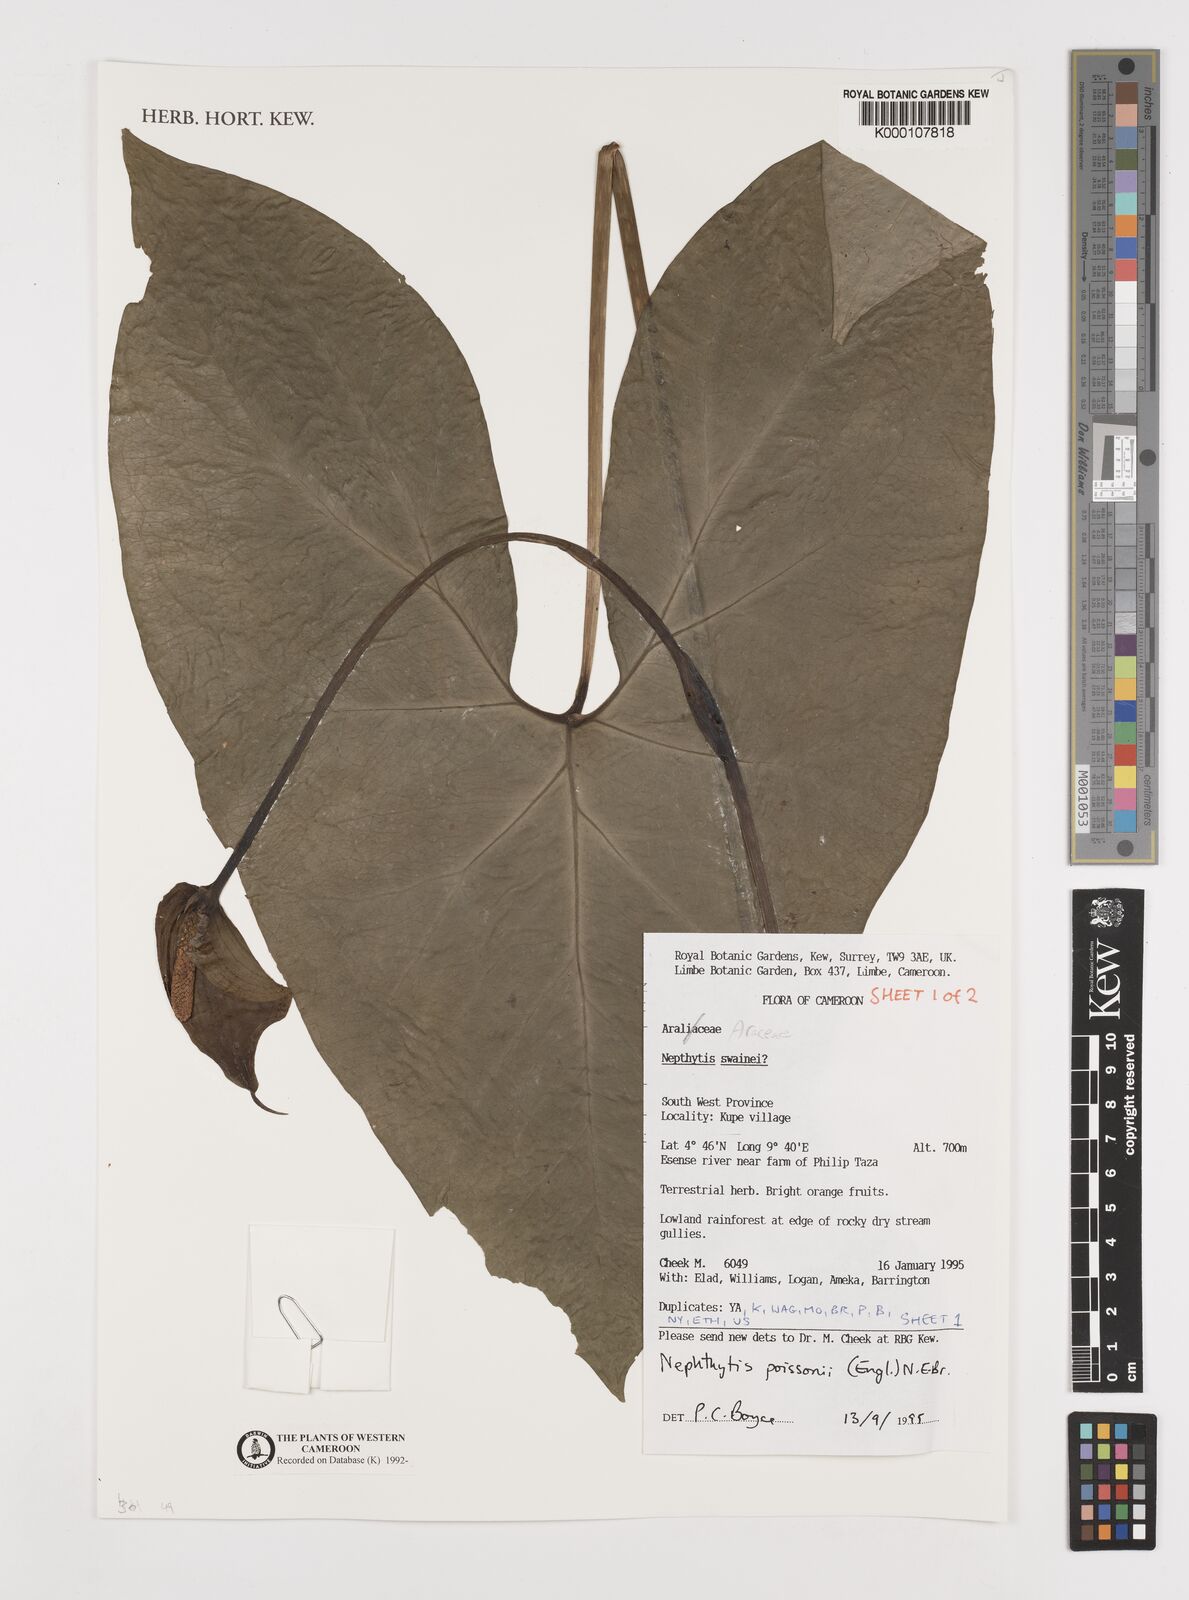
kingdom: Plantae
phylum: Tracheophyta
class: Liliopsida
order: Alismatales
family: Araceae
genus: Nephthytis
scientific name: Nephthytis poissonii
